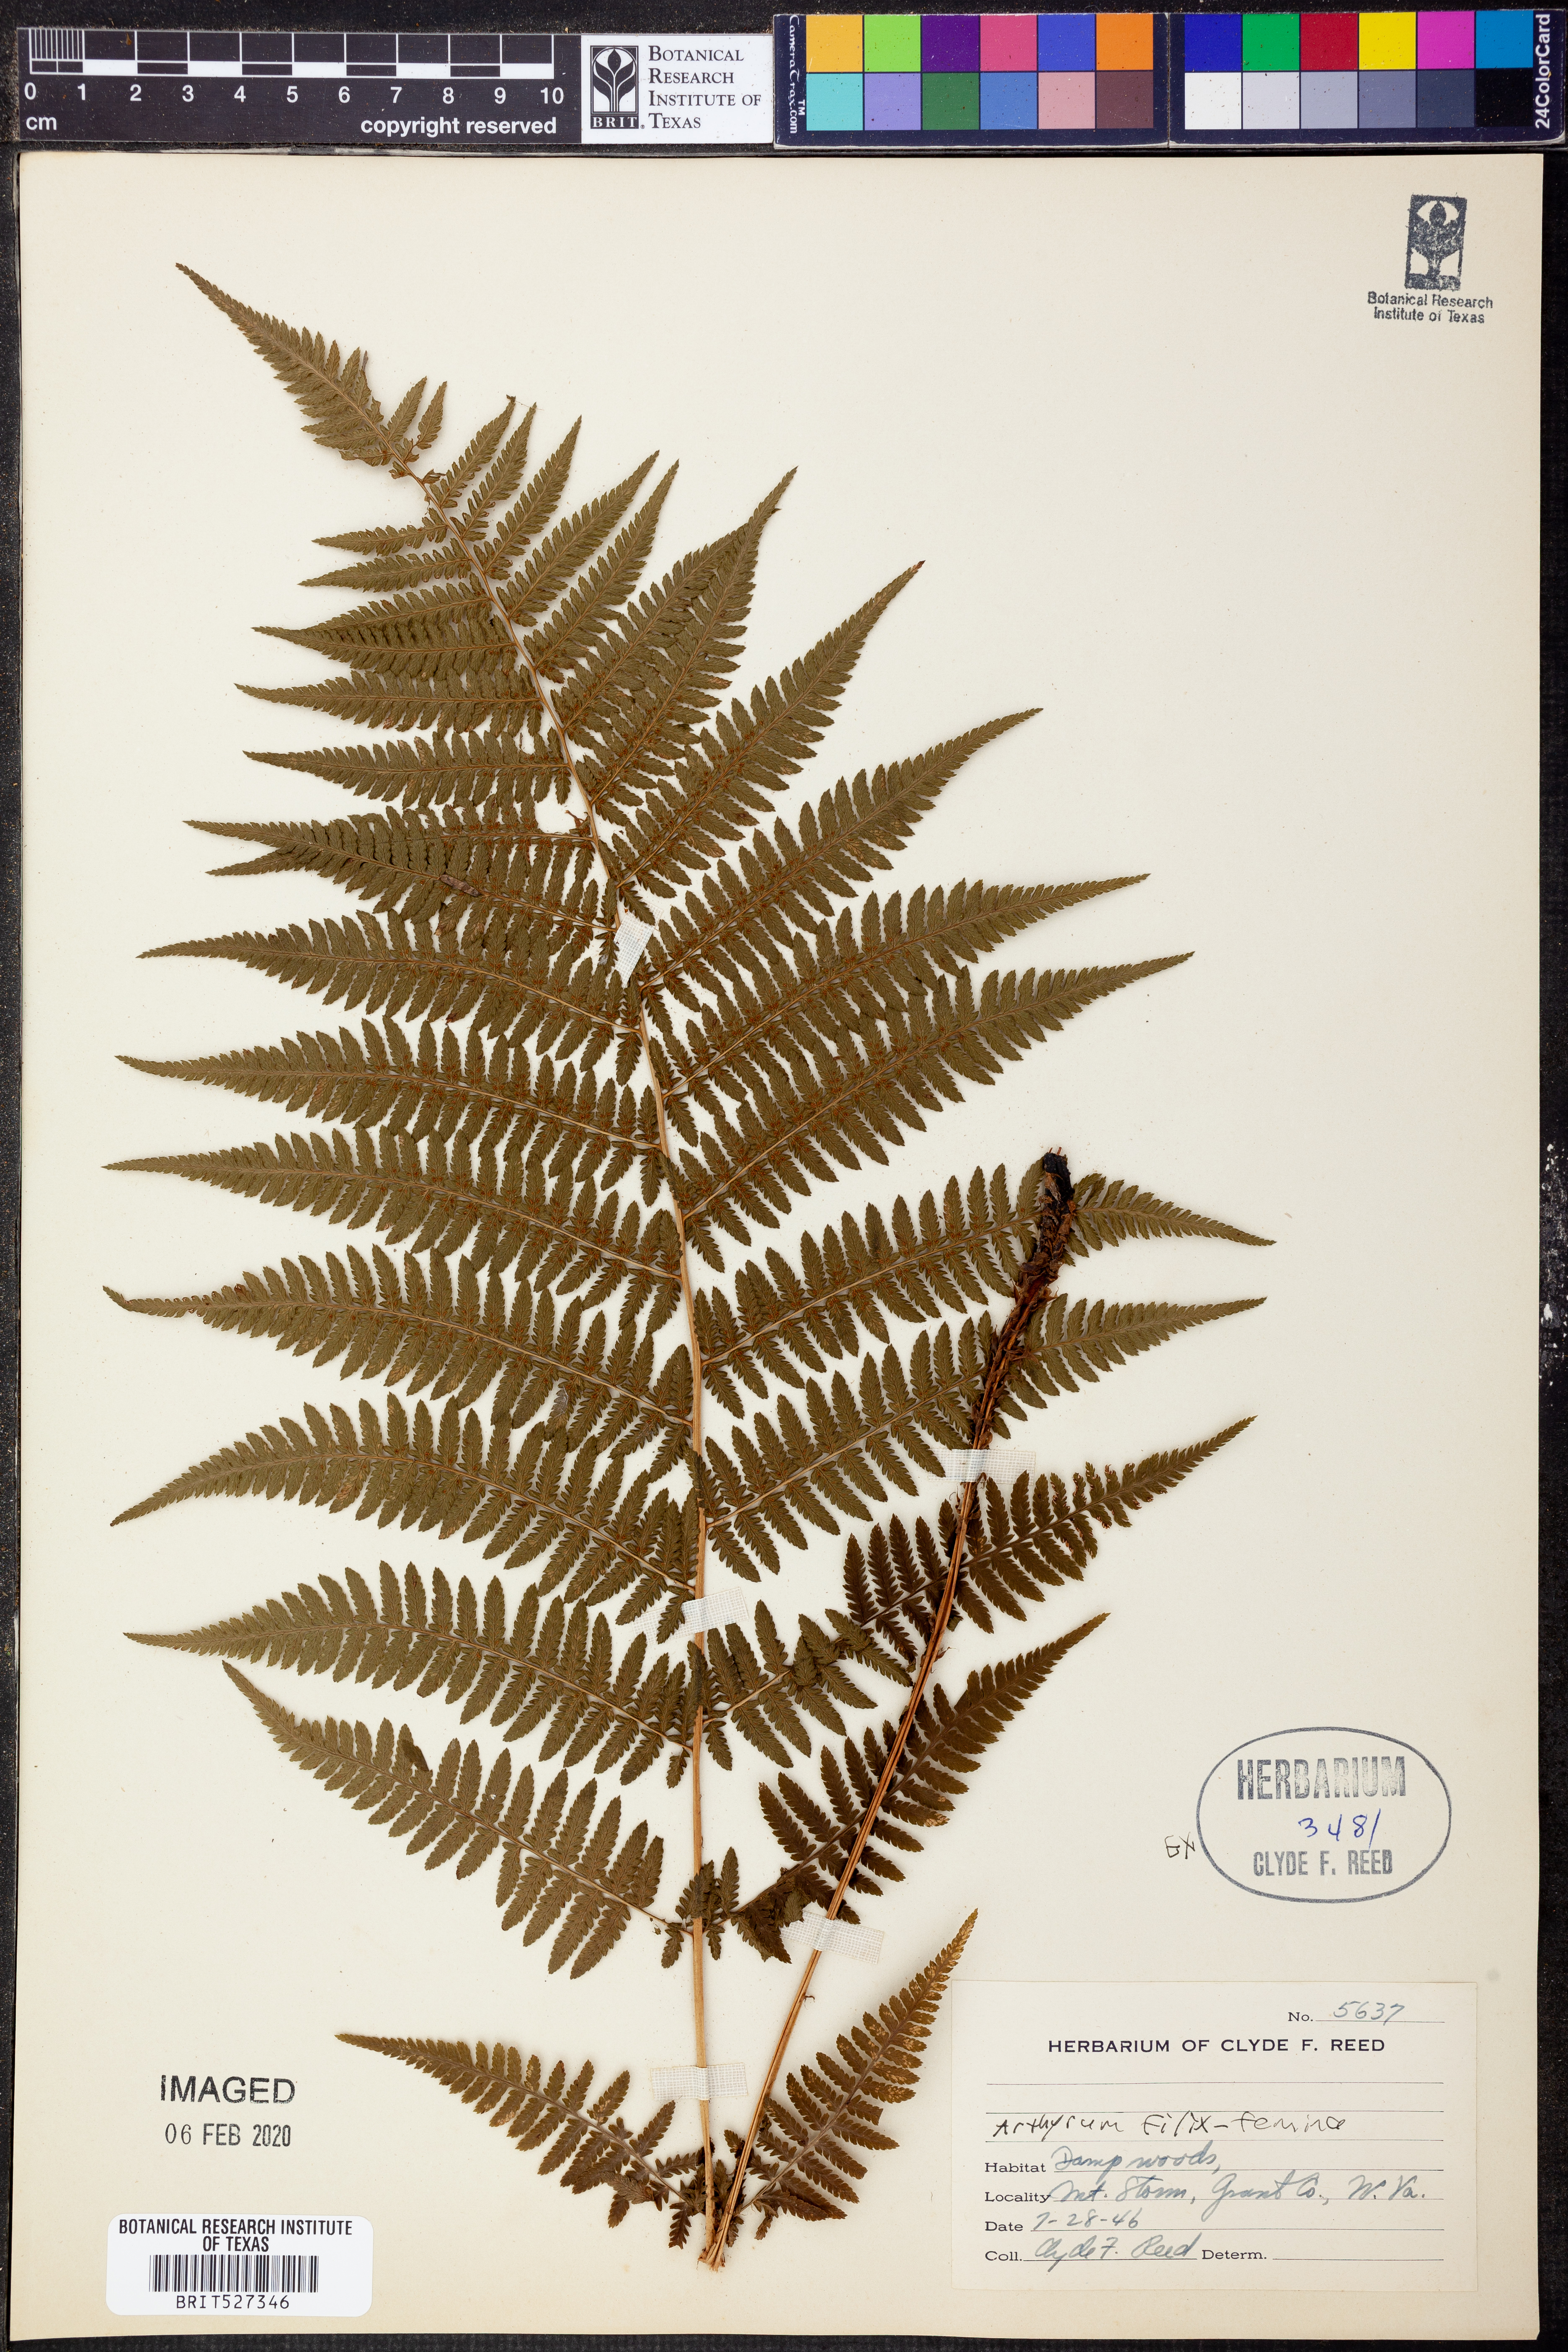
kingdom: Plantae
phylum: Tracheophyta
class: Polypodiopsida
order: Polypodiales
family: Athyriaceae
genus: Athyrium
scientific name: Athyrium filix-femina
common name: Lady fern
